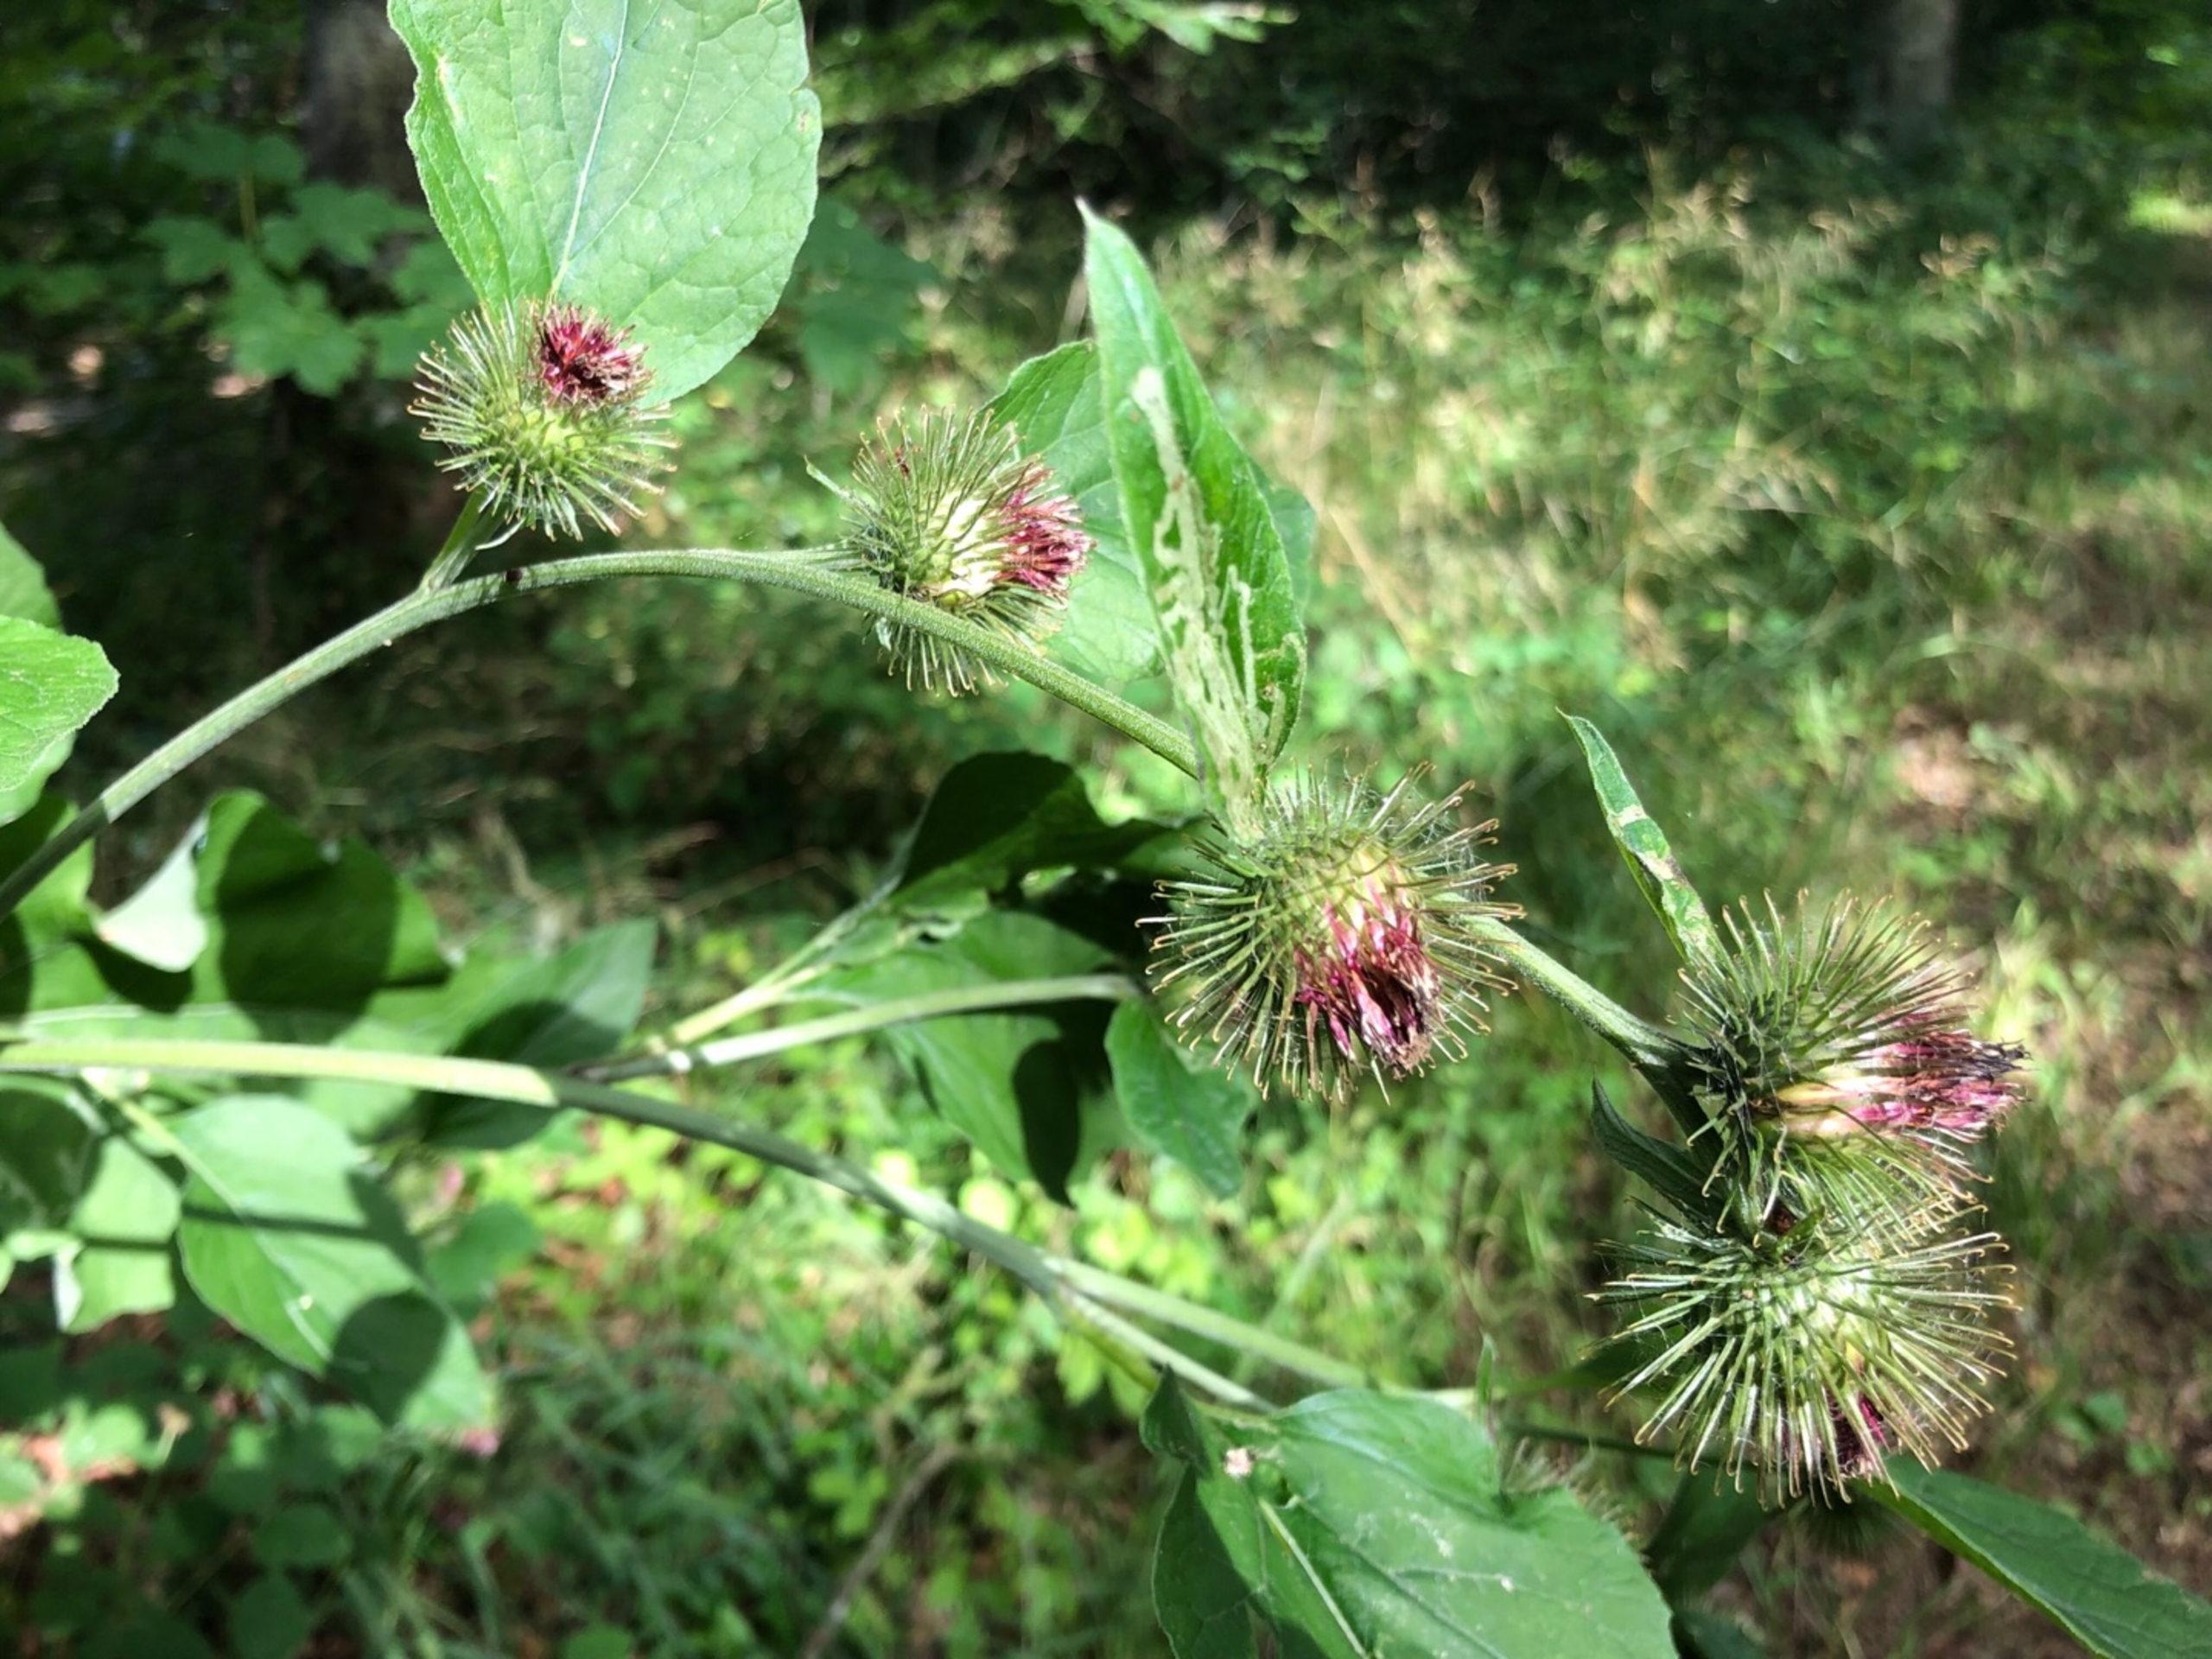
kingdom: Plantae
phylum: Tracheophyta
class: Magnoliopsida
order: Asterales
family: Asteraceae
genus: Arctium
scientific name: Arctium nemorosum
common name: Skov-burre
